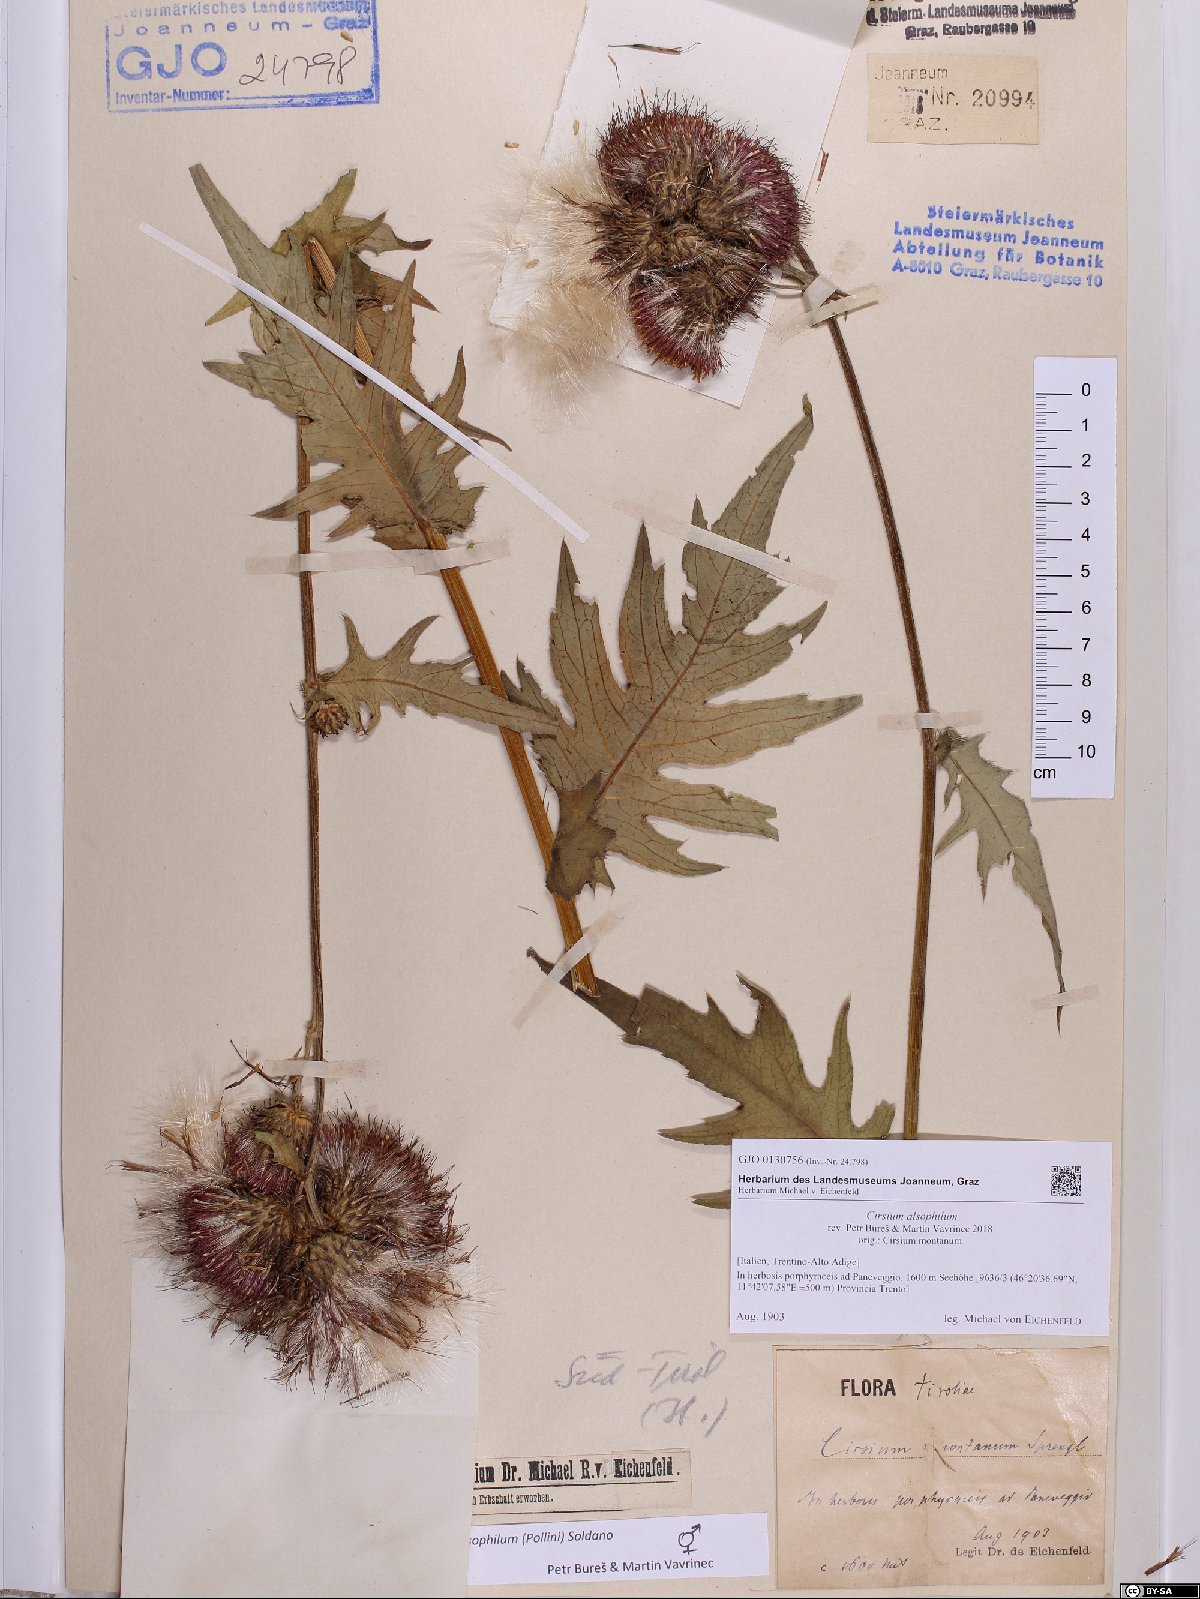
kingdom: Plantae
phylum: Tracheophyta
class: Magnoliopsida
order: Asterales
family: Asteraceae
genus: Cirsium
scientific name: Cirsium alsophilum
